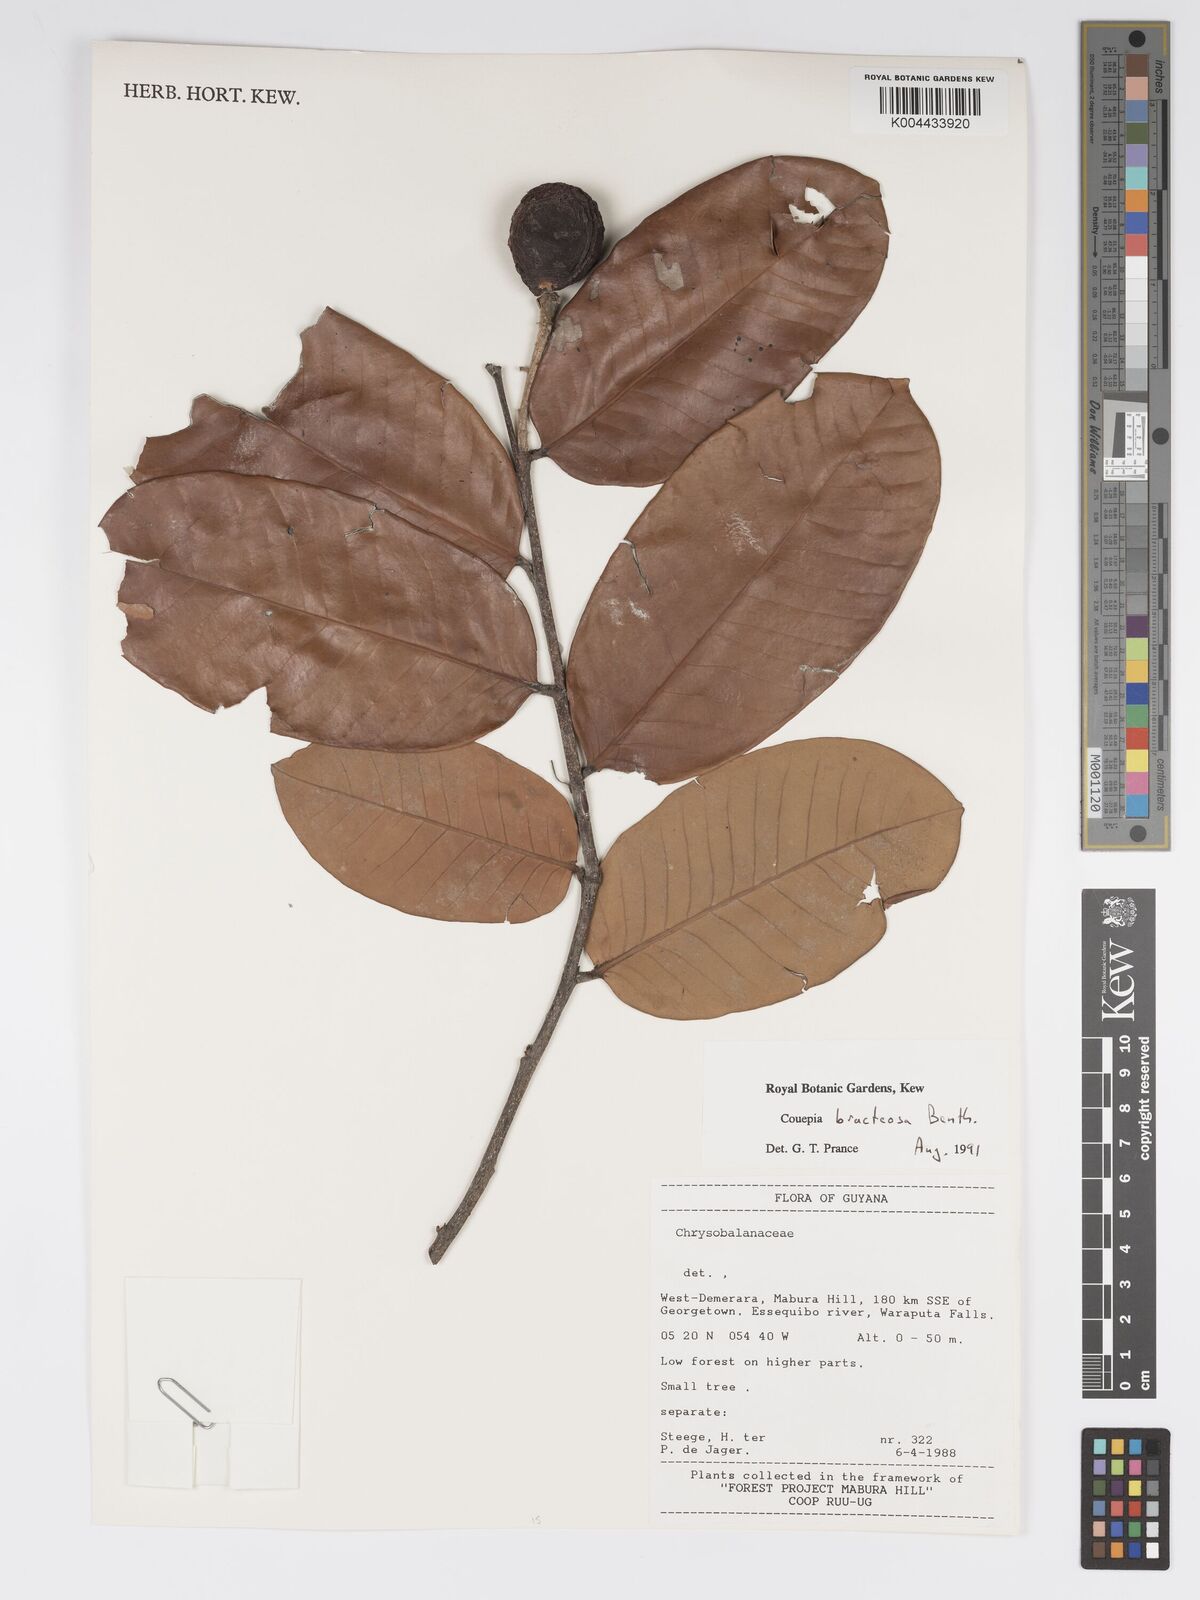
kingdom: Plantae
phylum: Tracheophyta
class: Magnoliopsida
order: Malpighiales
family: Chrysobalanaceae
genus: Couepia
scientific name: Couepia bracteosa
